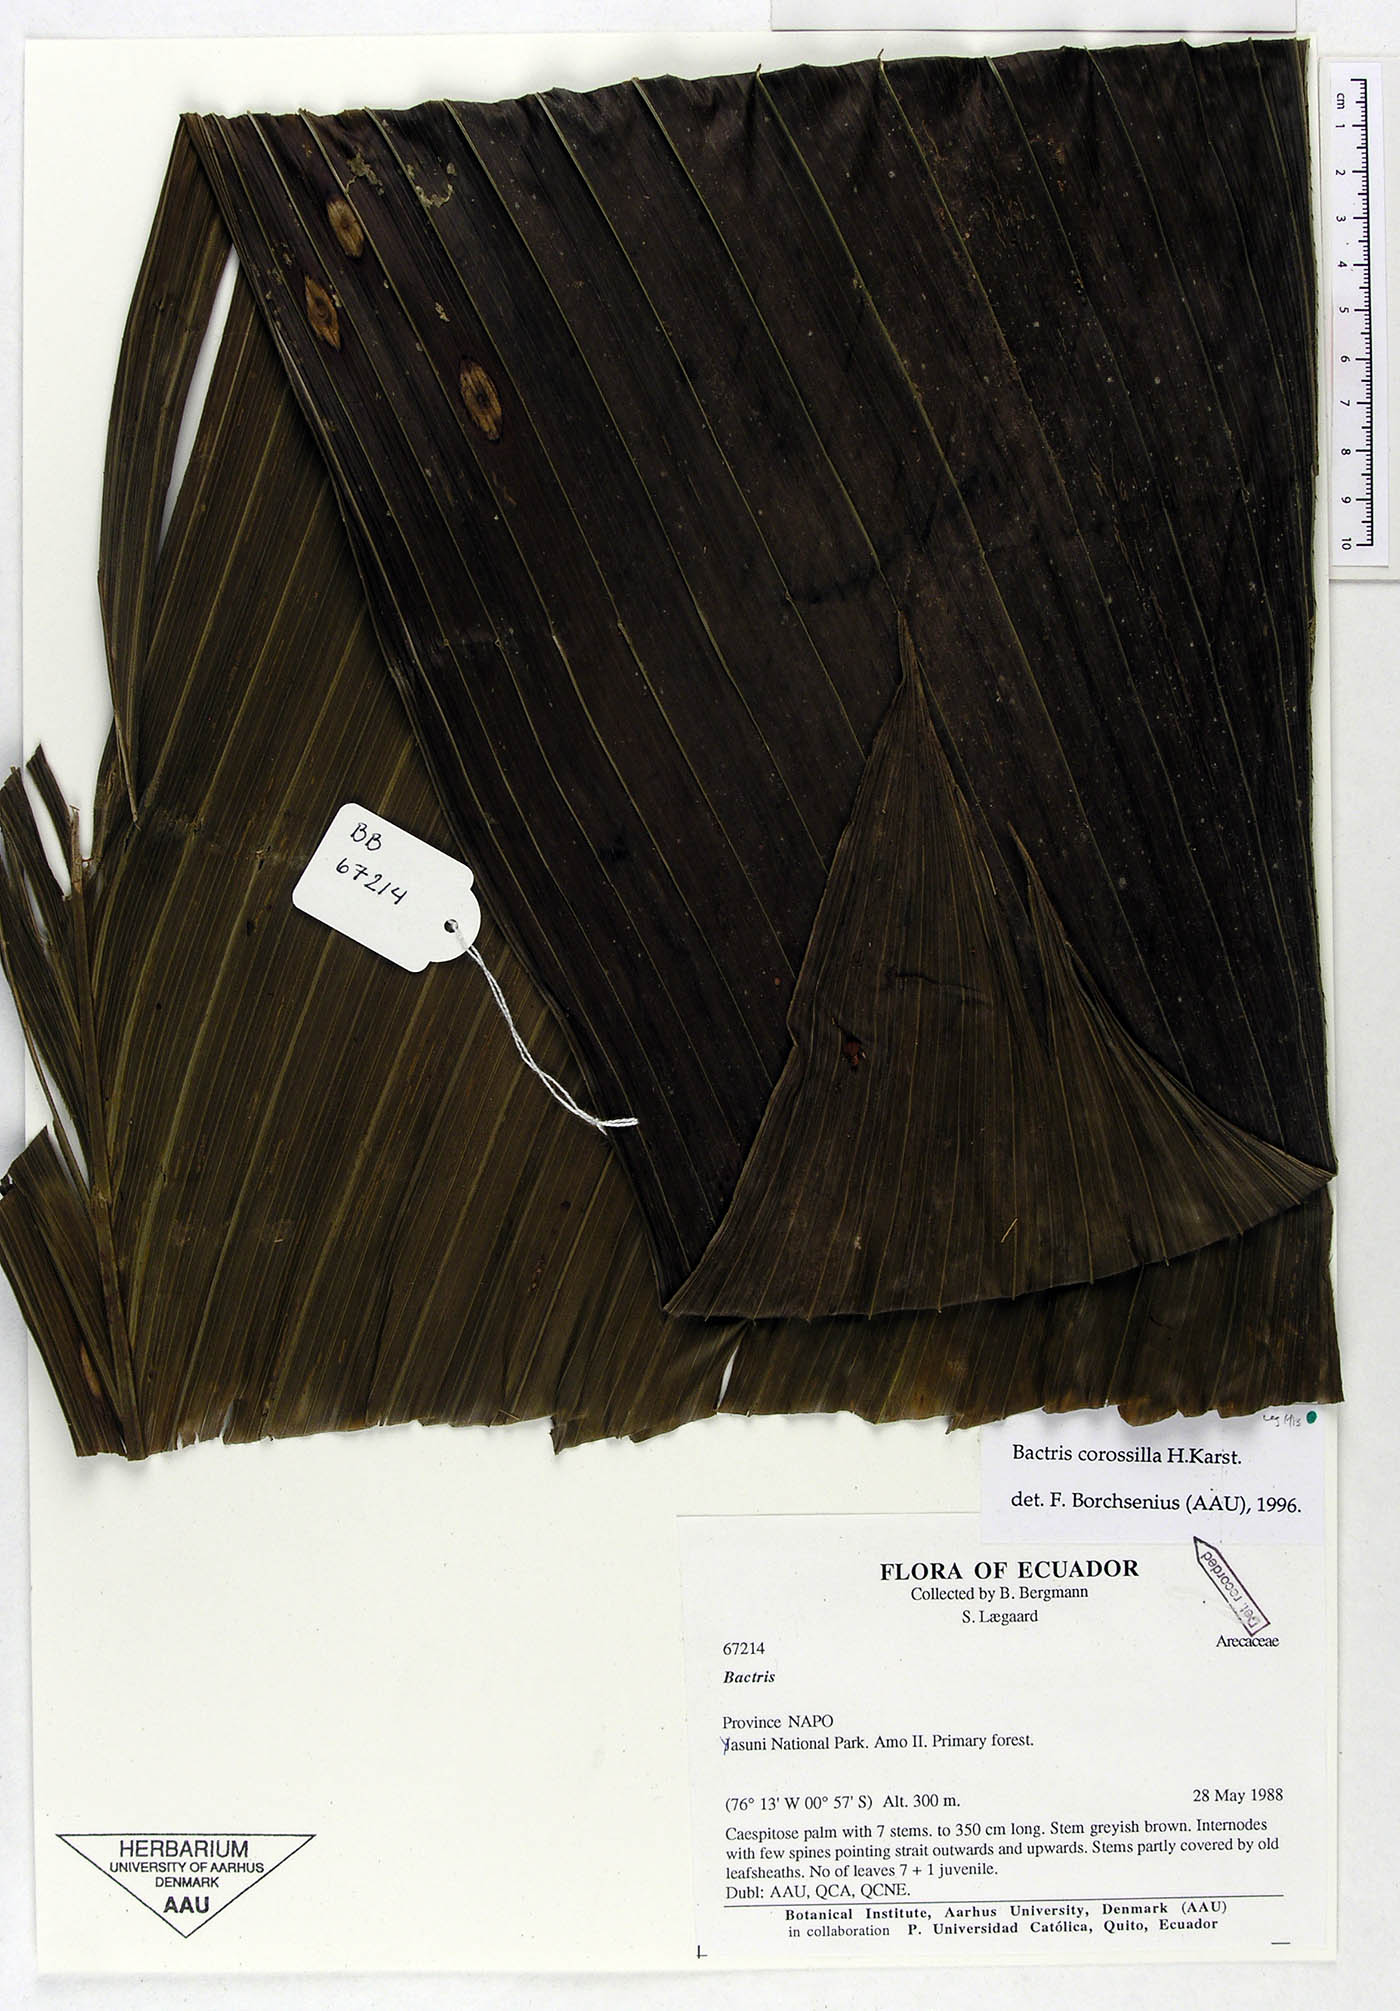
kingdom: Plantae
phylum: Tracheophyta
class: Liliopsida
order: Arecales
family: Arecaceae
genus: Bactris
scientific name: Bactris corossilla
